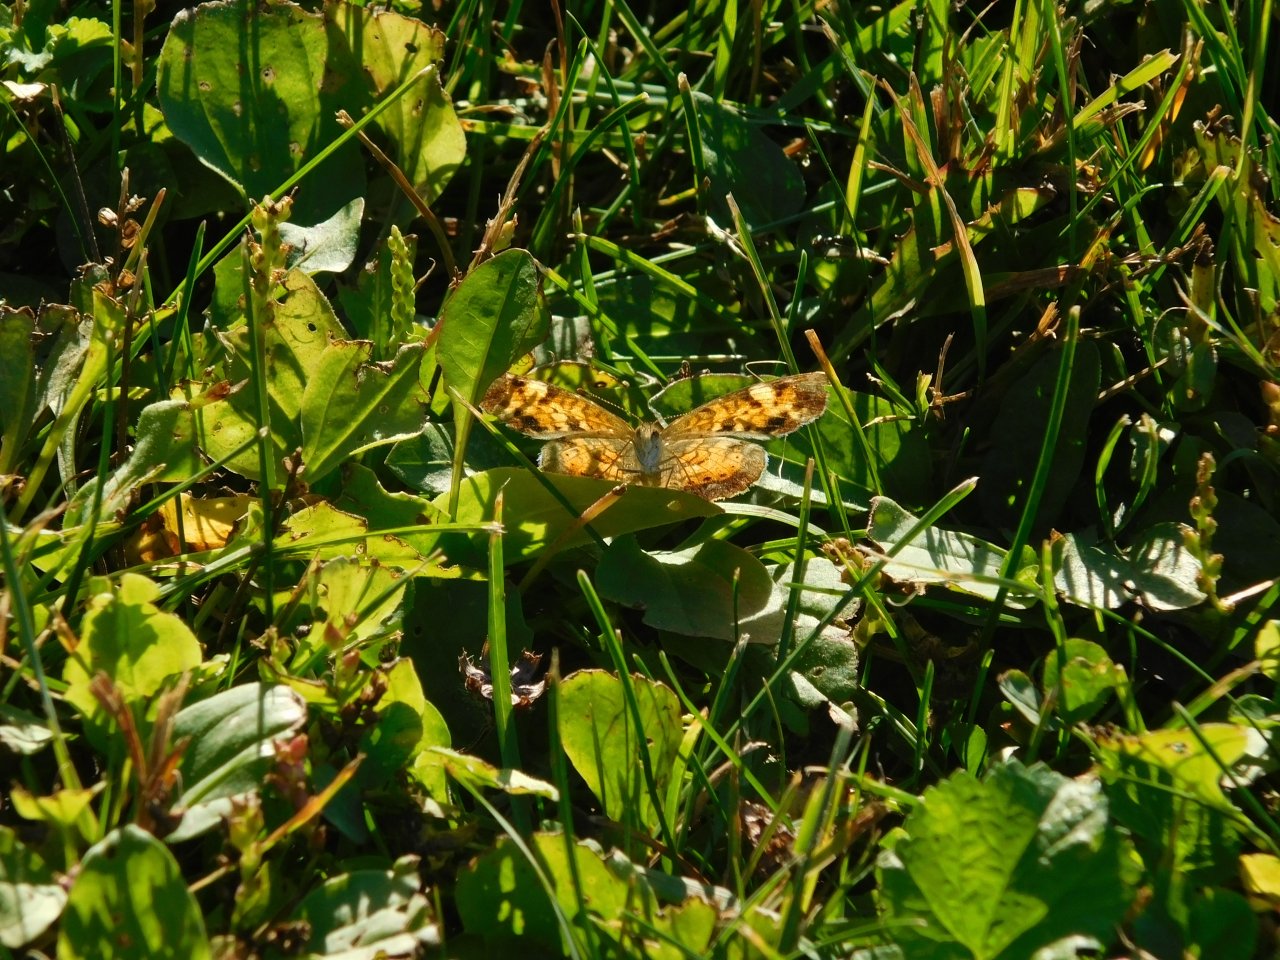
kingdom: Animalia
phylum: Arthropoda
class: Insecta
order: Lepidoptera
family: Nymphalidae
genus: Phyciodes
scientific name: Phyciodes tharos
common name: Northern Crescent
